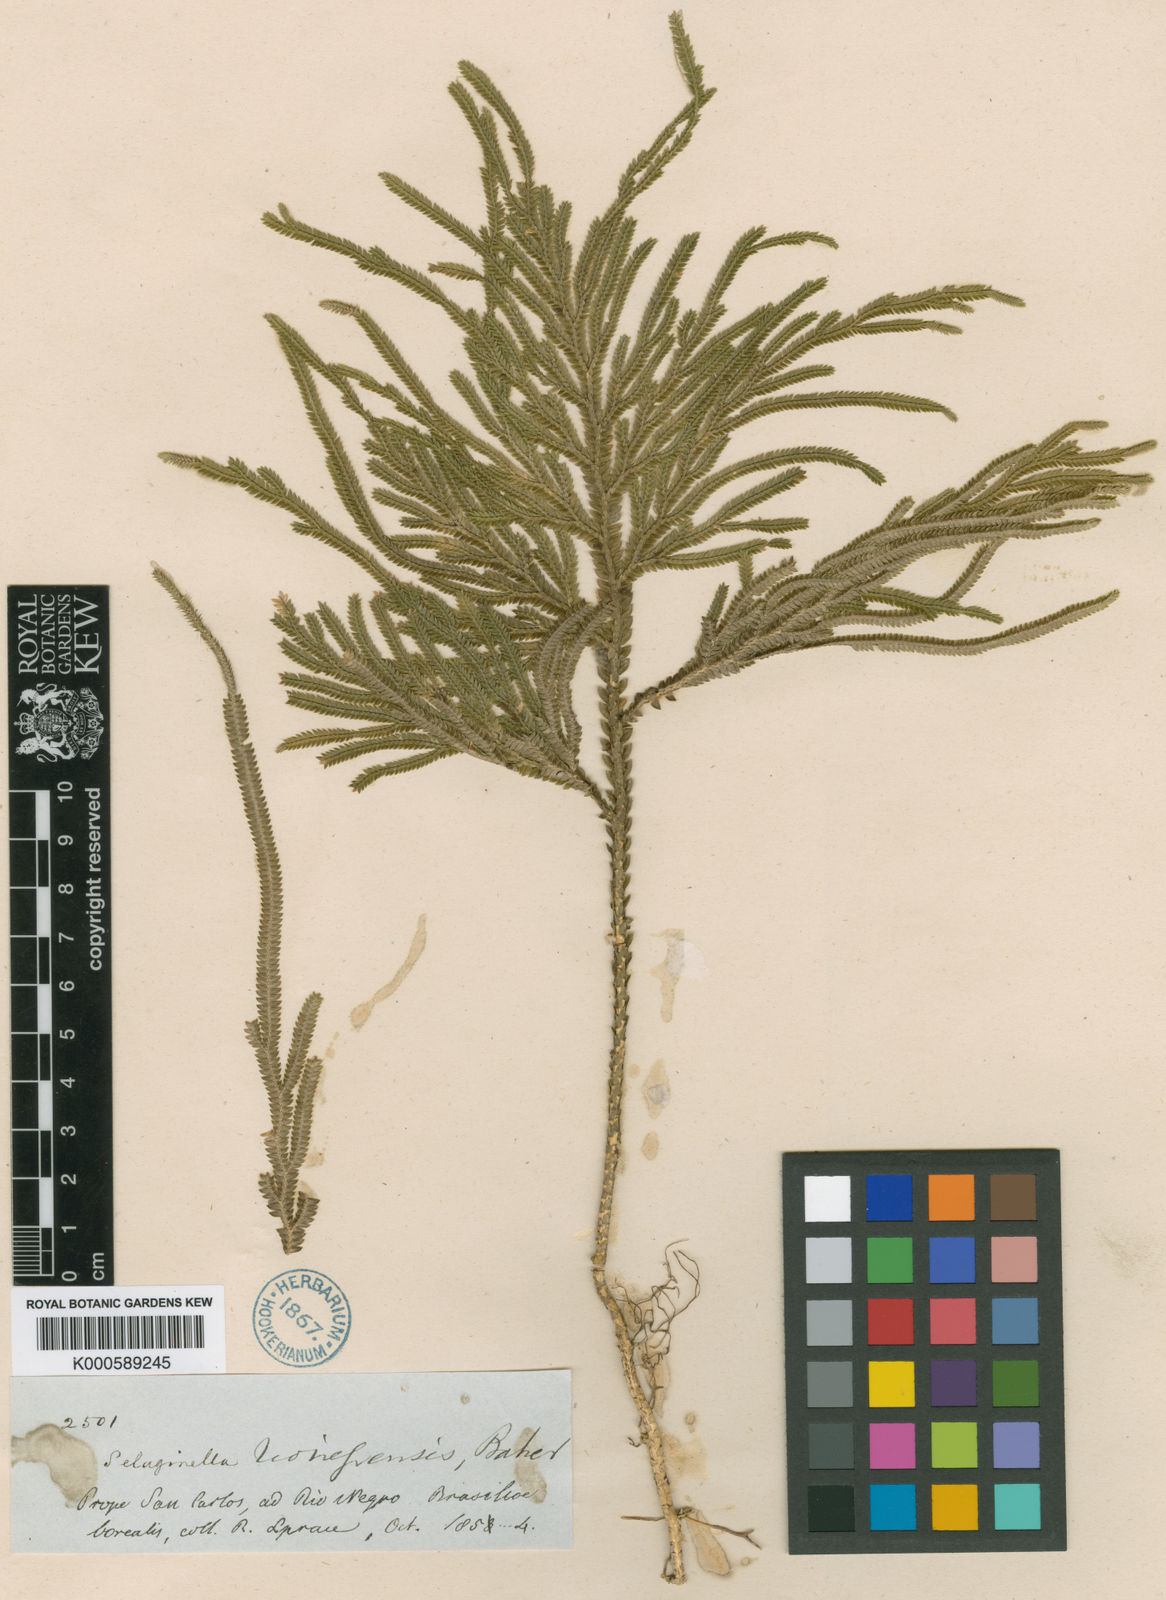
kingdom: Plantae
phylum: Tracheophyta
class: Lycopodiopsida
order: Selaginellales
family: Selaginellaceae
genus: Selaginella
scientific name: Selaginella amazonica
